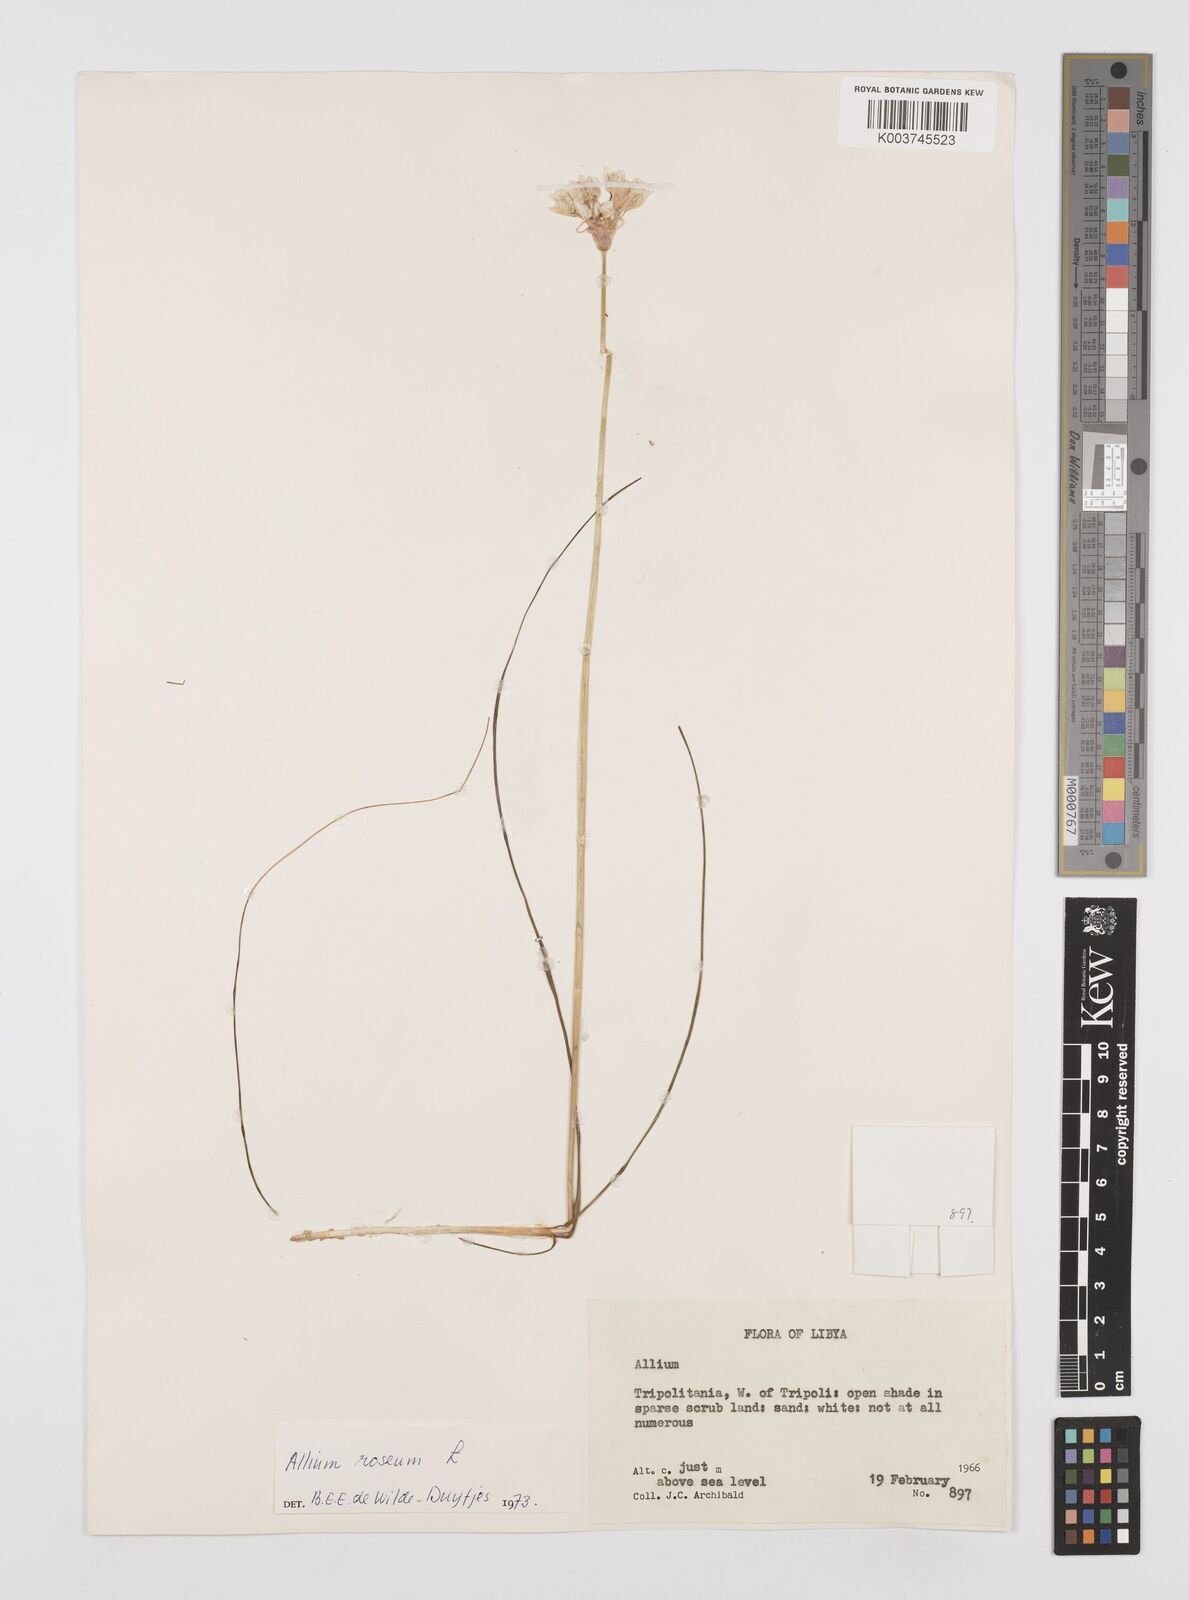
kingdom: Plantae
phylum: Tracheophyta
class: Liliopsida
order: Asparagales
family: Amaryllidaceae
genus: Allium
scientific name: Allium roseum
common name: Rosy garlic
